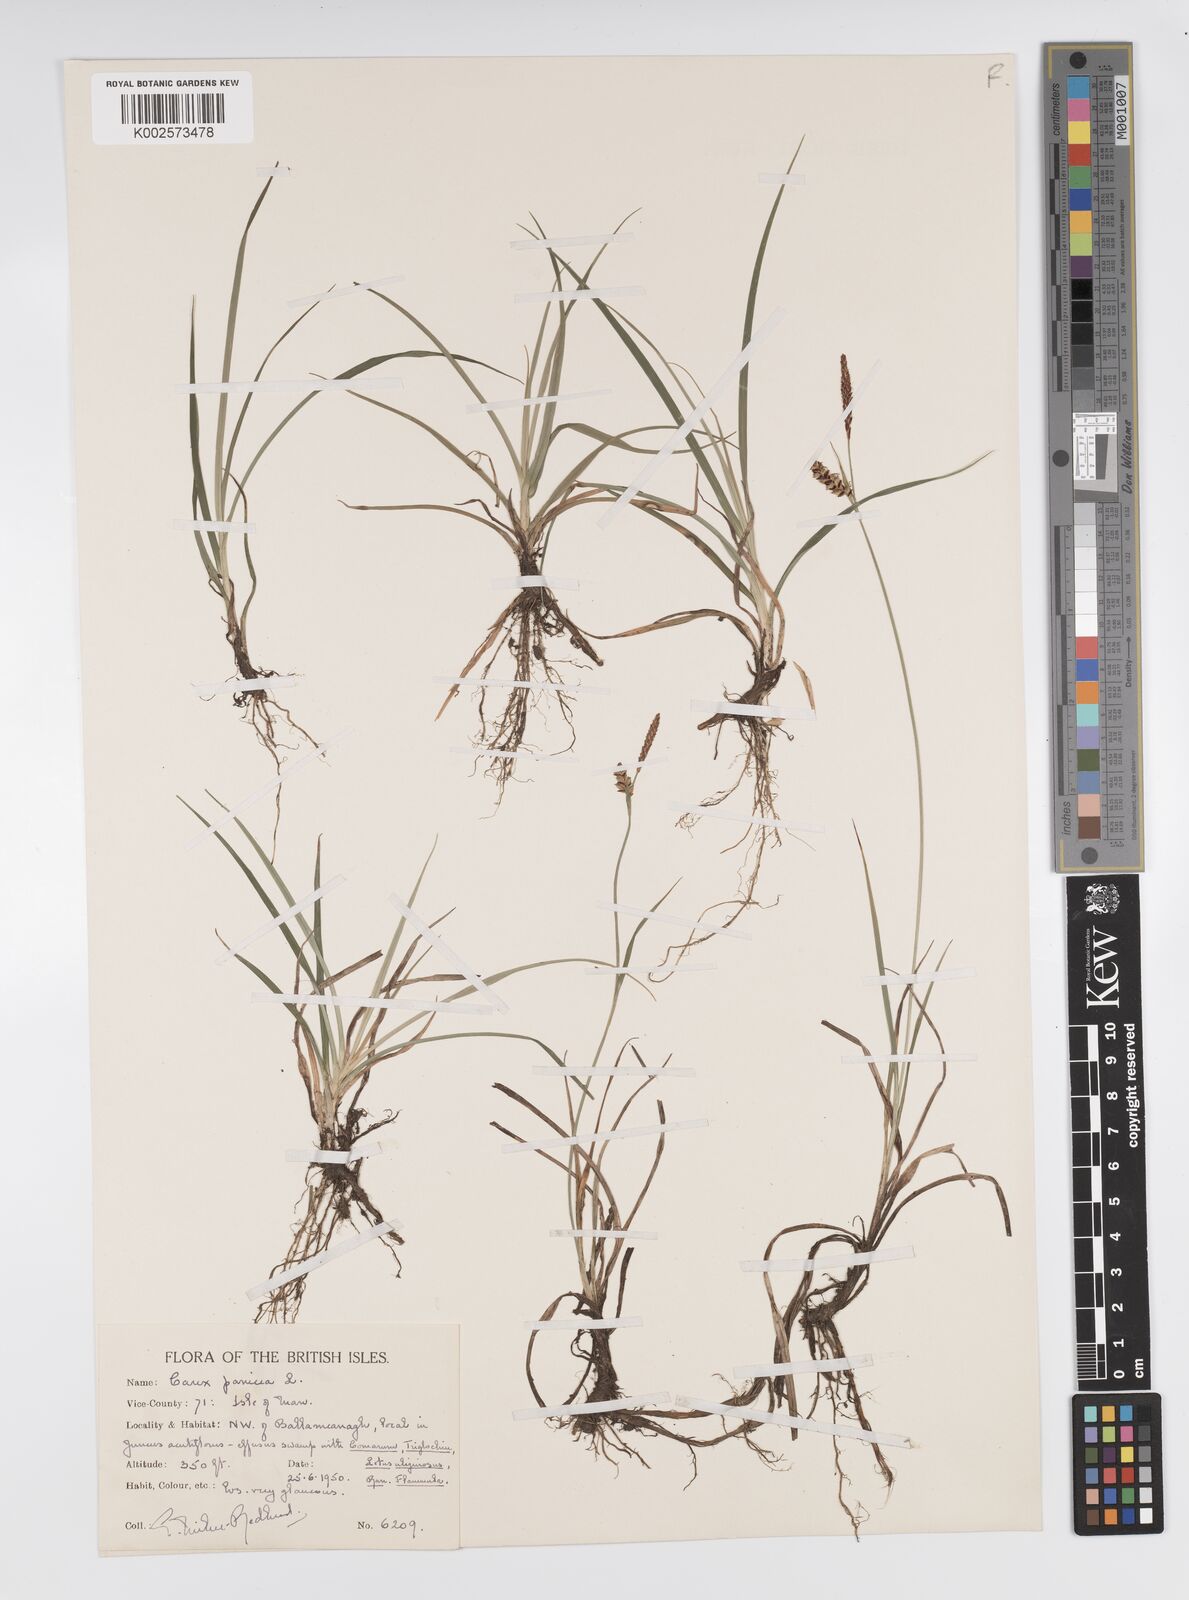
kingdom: Plantae
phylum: Tracheophyta
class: Liliopsida
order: Poales
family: Cyperaceae
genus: Carex
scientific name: Carex panicea
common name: Carnation sedge
